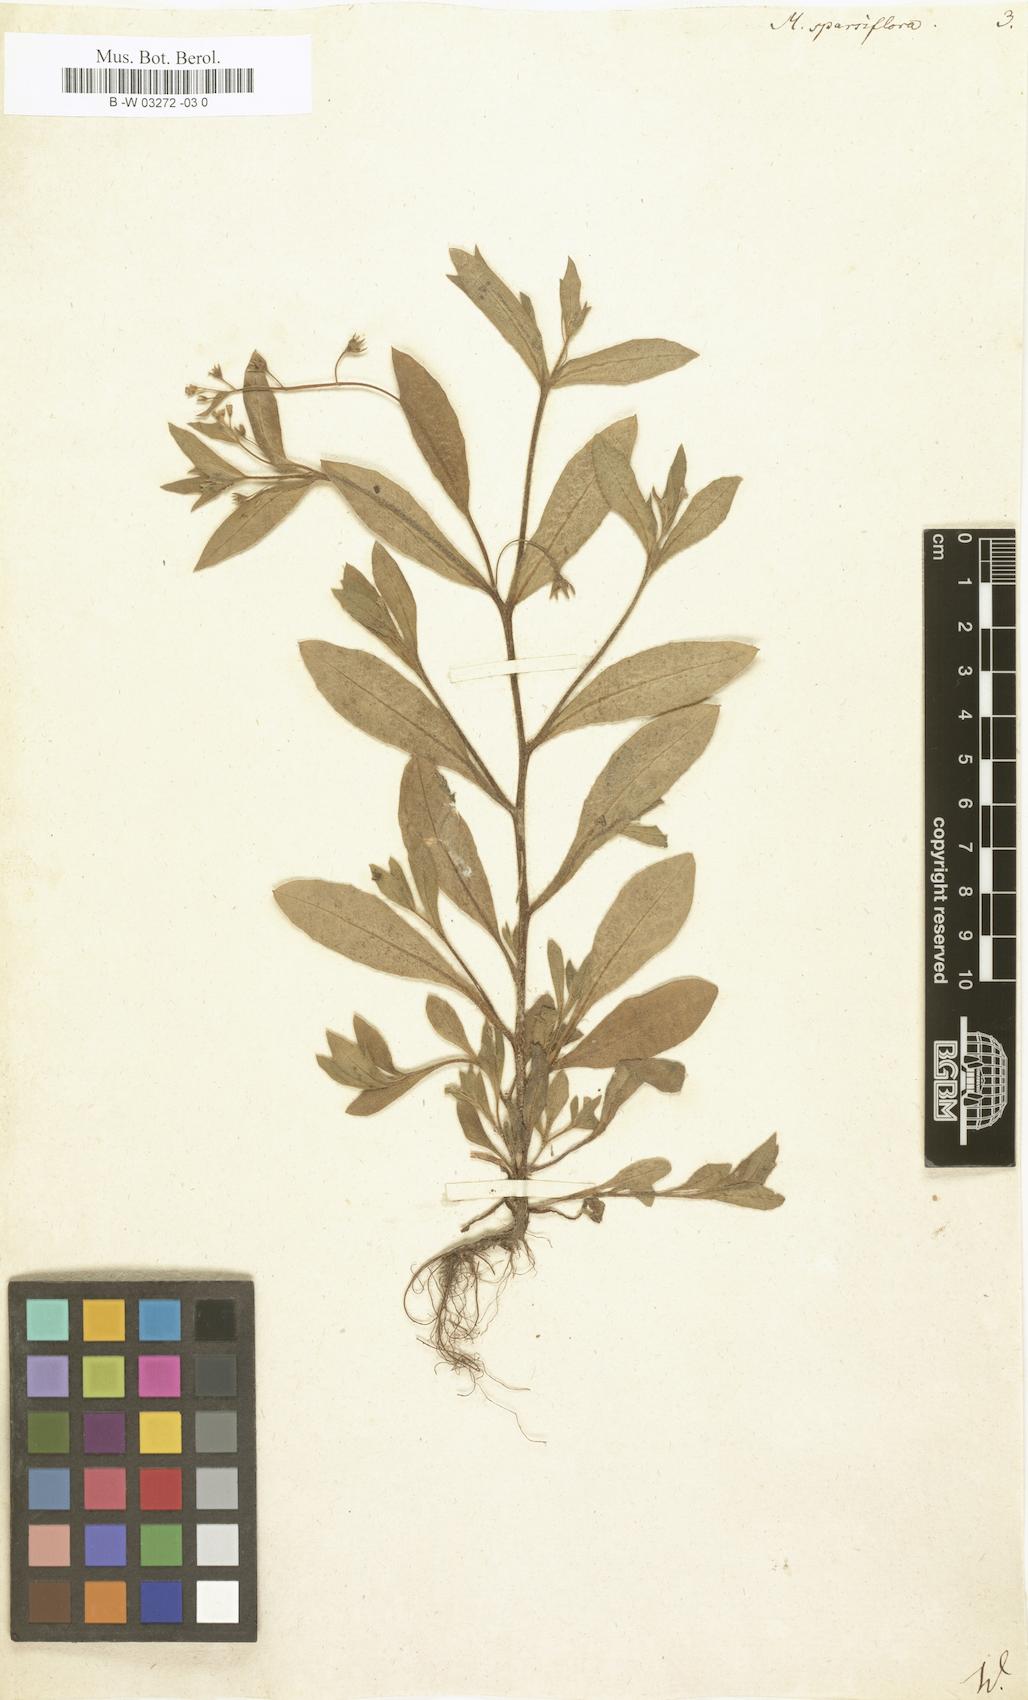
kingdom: Plantae
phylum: Tracheophyta
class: Magnoliopsida
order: Boraginales
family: Boraginaceae
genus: Myosotis
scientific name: Myosotis sparsiflora
